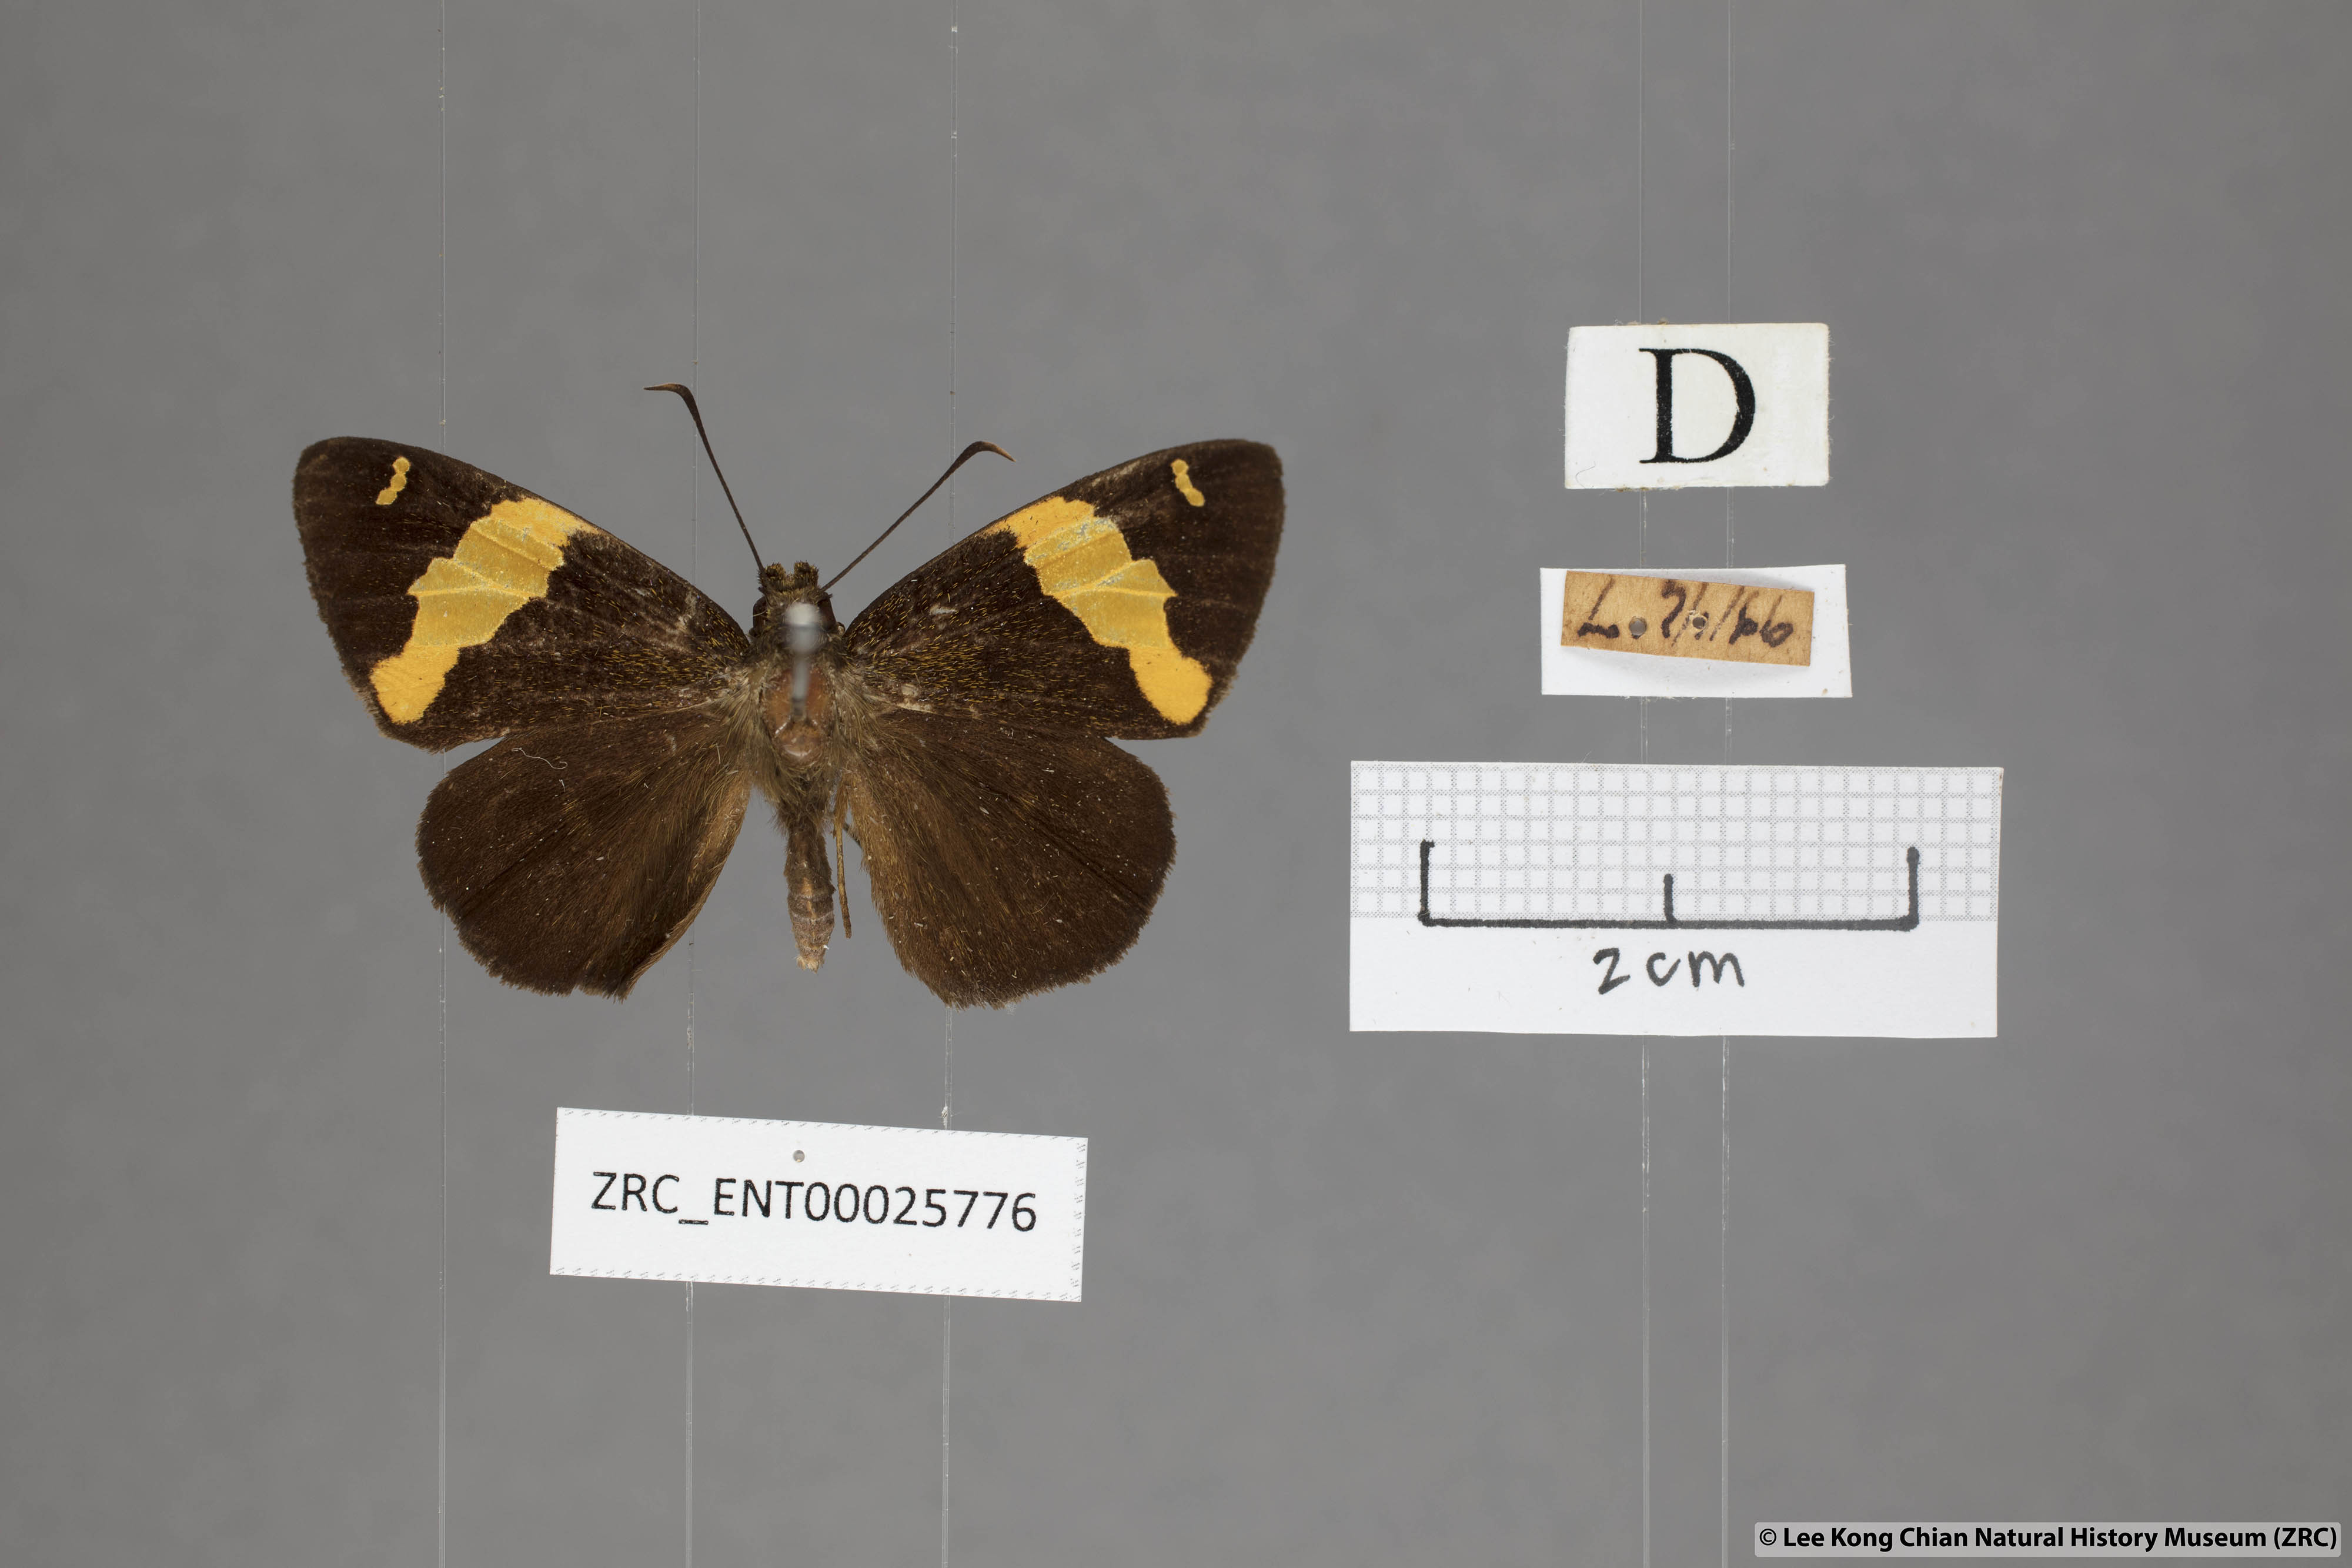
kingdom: Animalia
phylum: Arthropoda
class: Insecta
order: Lepidoptera
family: Hesperiidae
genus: Celaenorrhinus
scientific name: Celaenorrhinus aurivittata
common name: Dark yellow-banded flat
